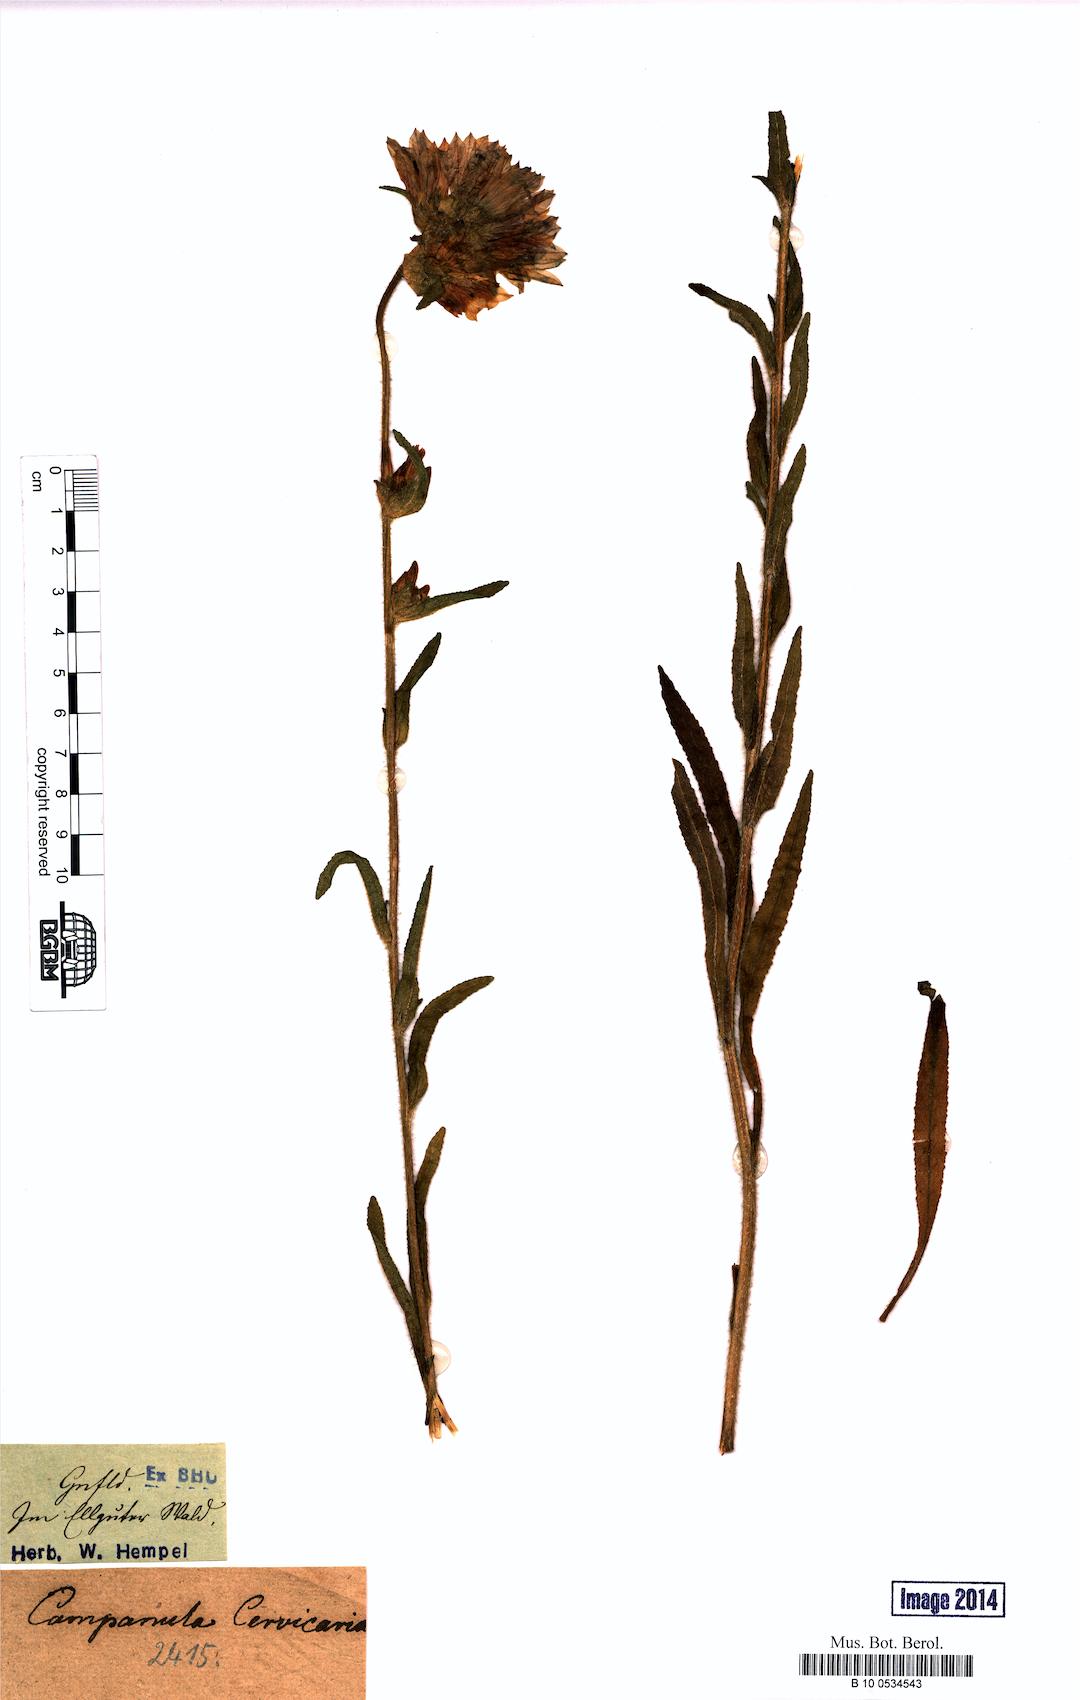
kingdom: Plantae
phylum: Tracheophyta
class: Magnoliopsida
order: Asterales
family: Campanulaceae
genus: Campanula
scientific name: Campanula cervicaria
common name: Bristly bellflower
